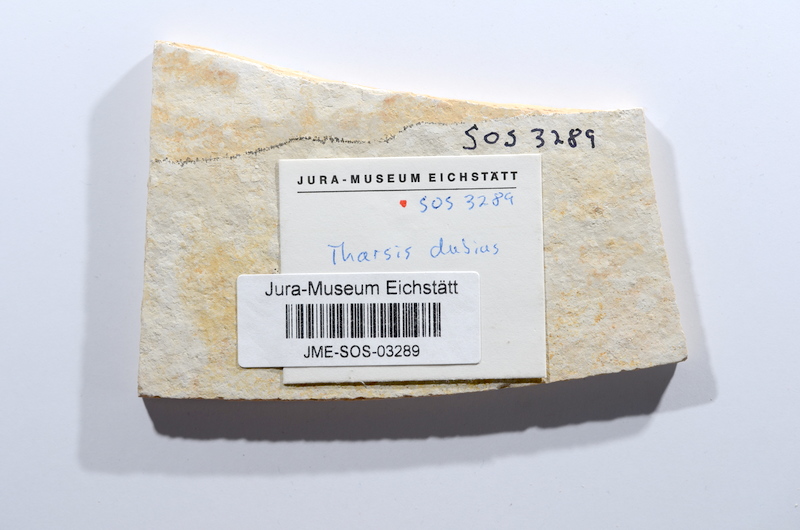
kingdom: Animalia
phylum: Chordata
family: Ascalaboidae
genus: Tharsis
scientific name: Tharsis dubius
